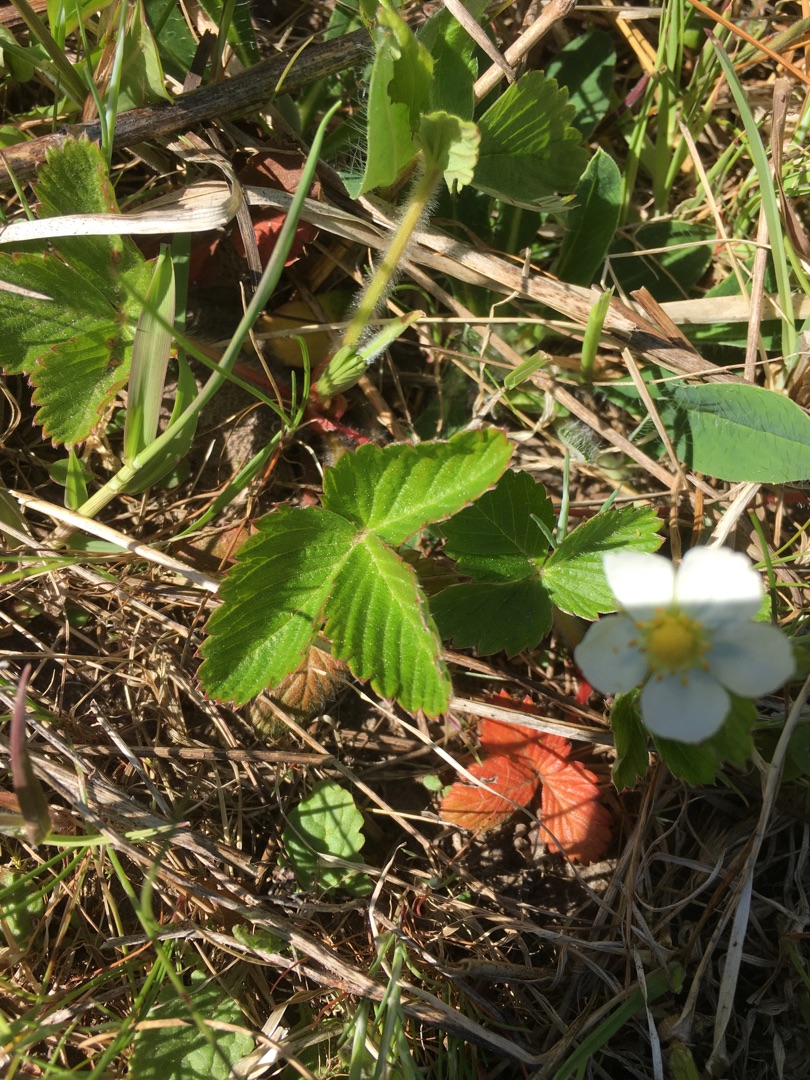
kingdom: Plantae
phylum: Tracheophyta
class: Magnoliopsida
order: Rosales
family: Rosaceae
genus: Fragaria
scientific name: Fragaria vesca
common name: Skov-jordbær
